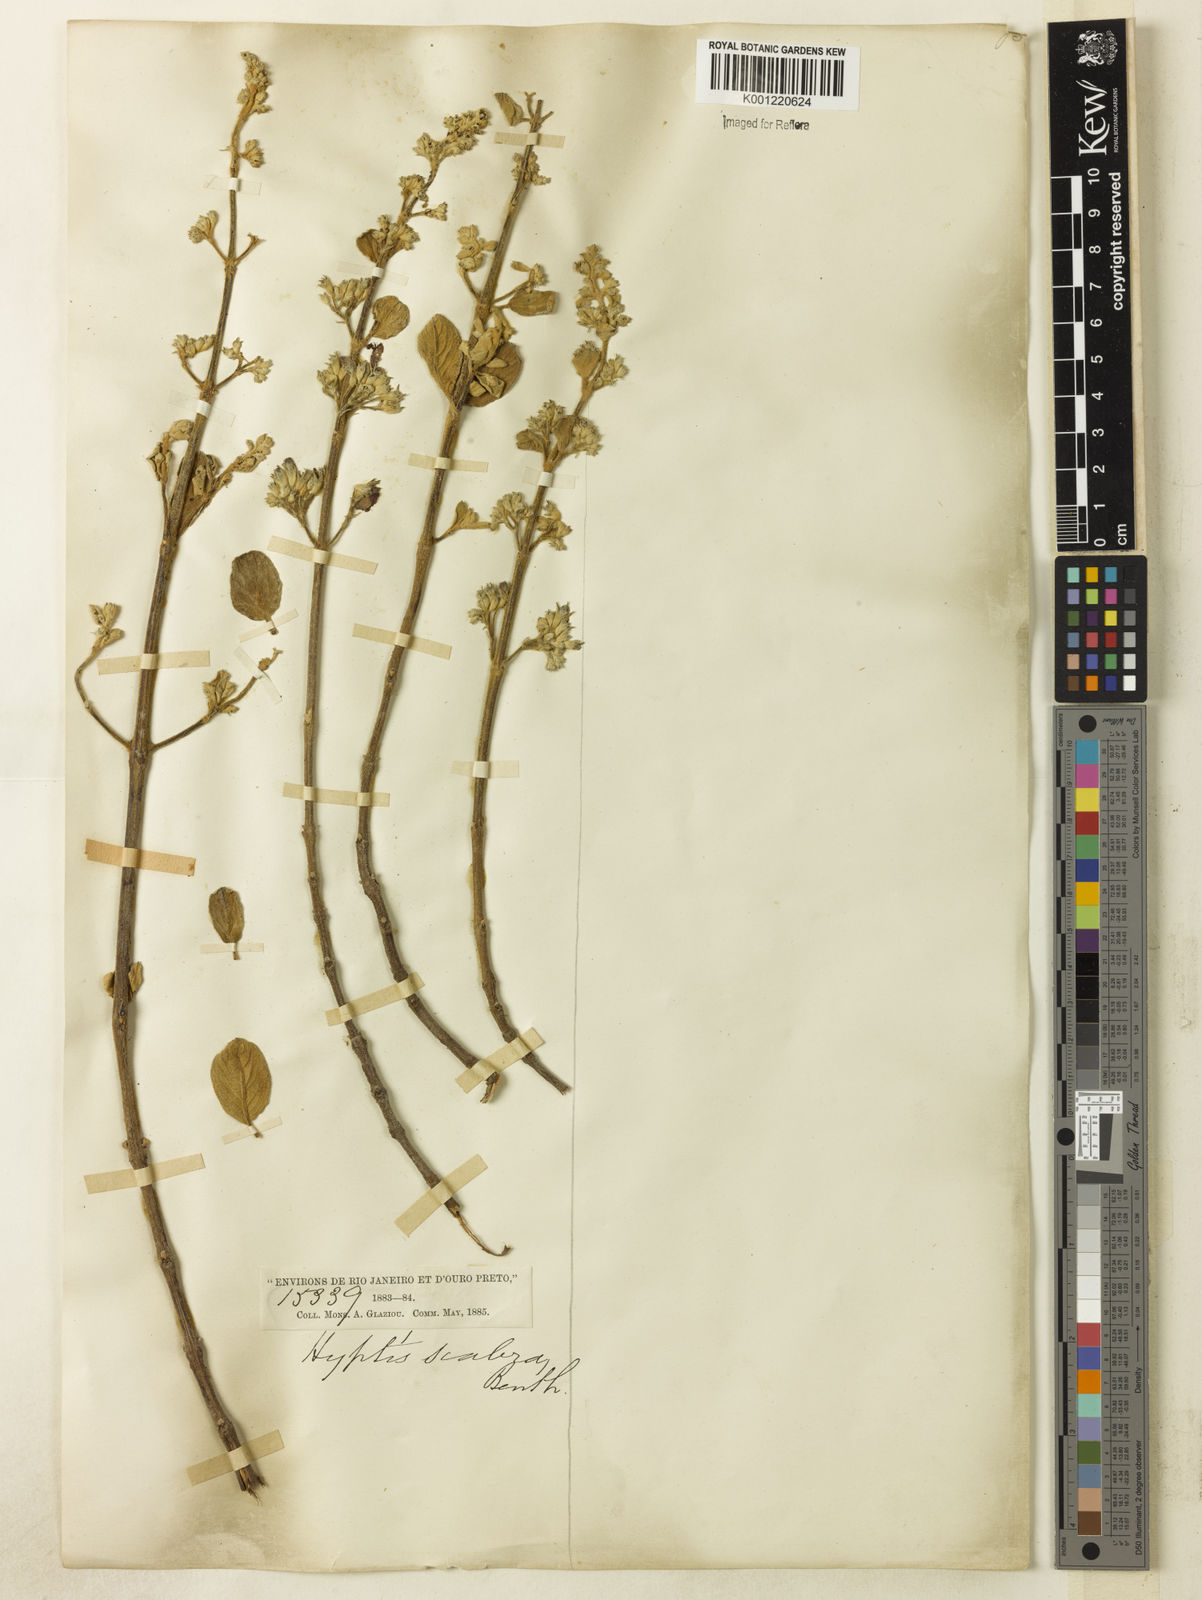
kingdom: Plantae
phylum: Tracheophyta
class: Magnoliopsida
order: Lamiales
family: Lamiaceae
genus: Hyptidendron
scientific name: Hyptidendron canum
